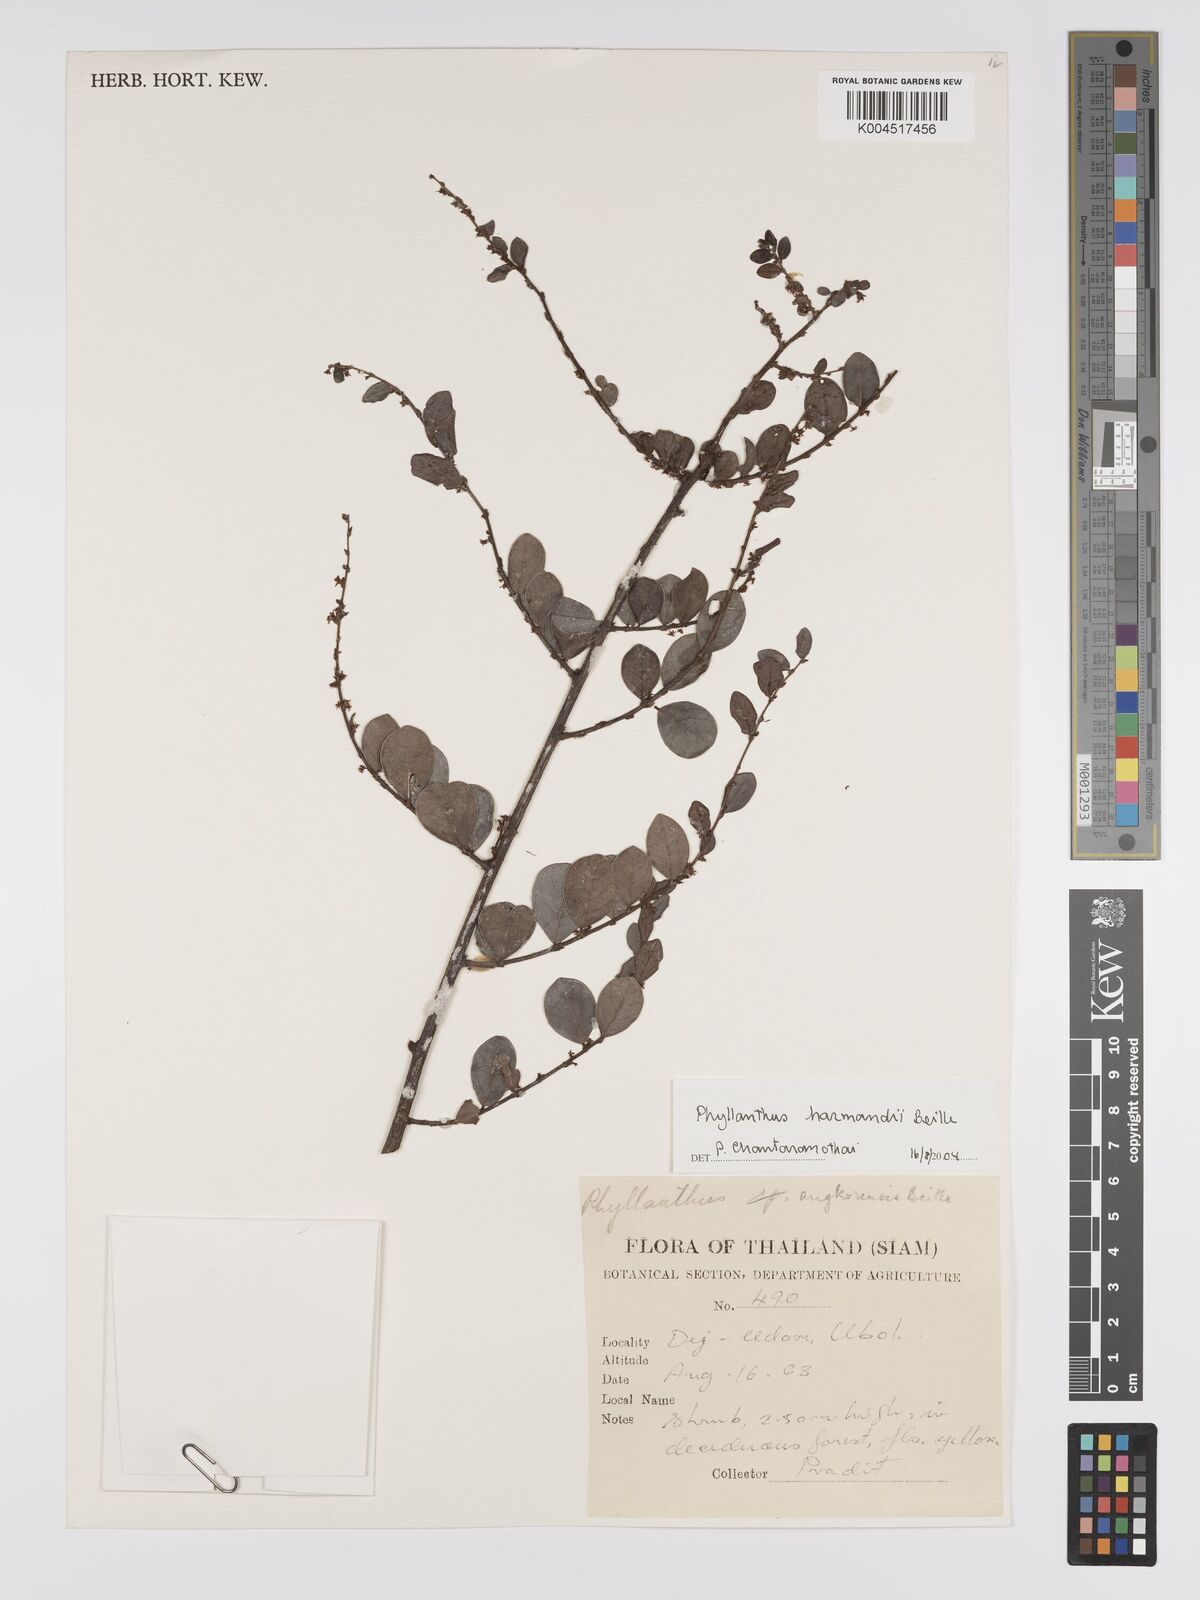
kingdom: Plantae
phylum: Tracheophyta
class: Magnoliopsida
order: Malpighiales
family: Phyllanthaceae
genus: Phyllanthus
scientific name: Phyllanthus harmandii
